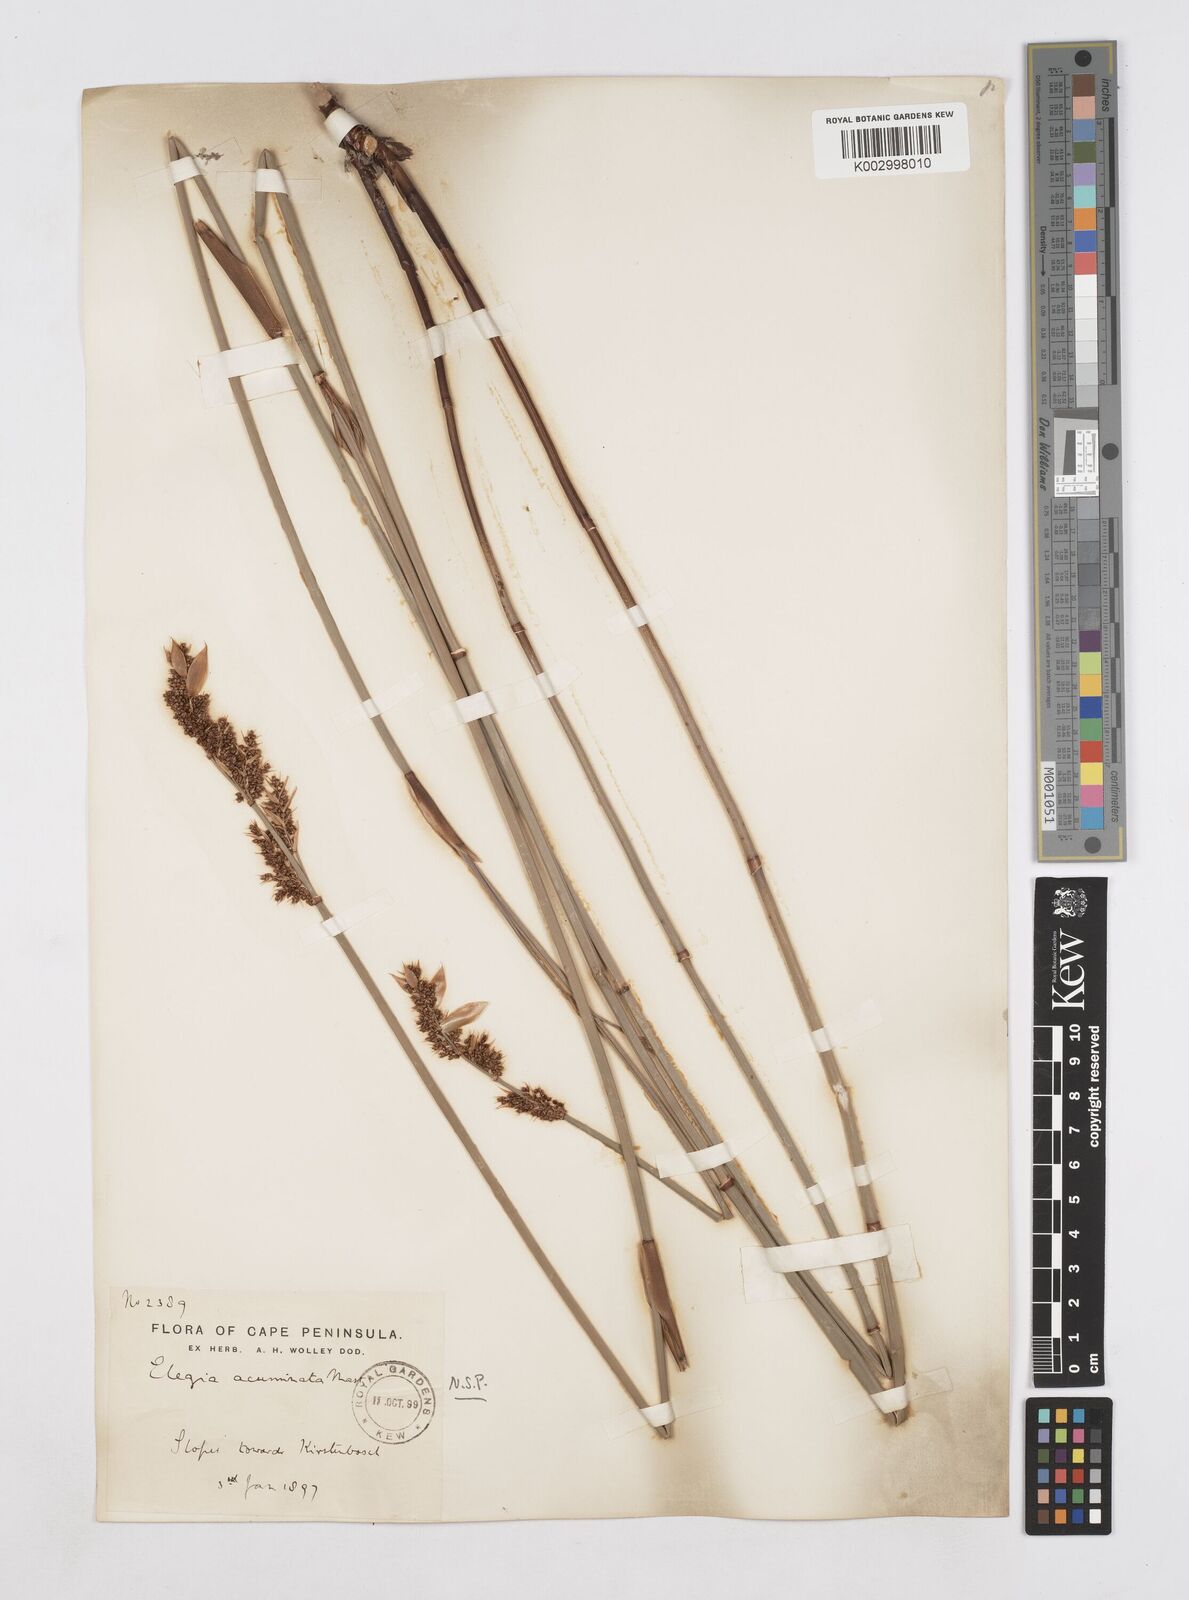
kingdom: Plantae
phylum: Tracheophyta
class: Liliopsida
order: Poales
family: Restionaceae
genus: Elegia
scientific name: Elegia thyrsifera
